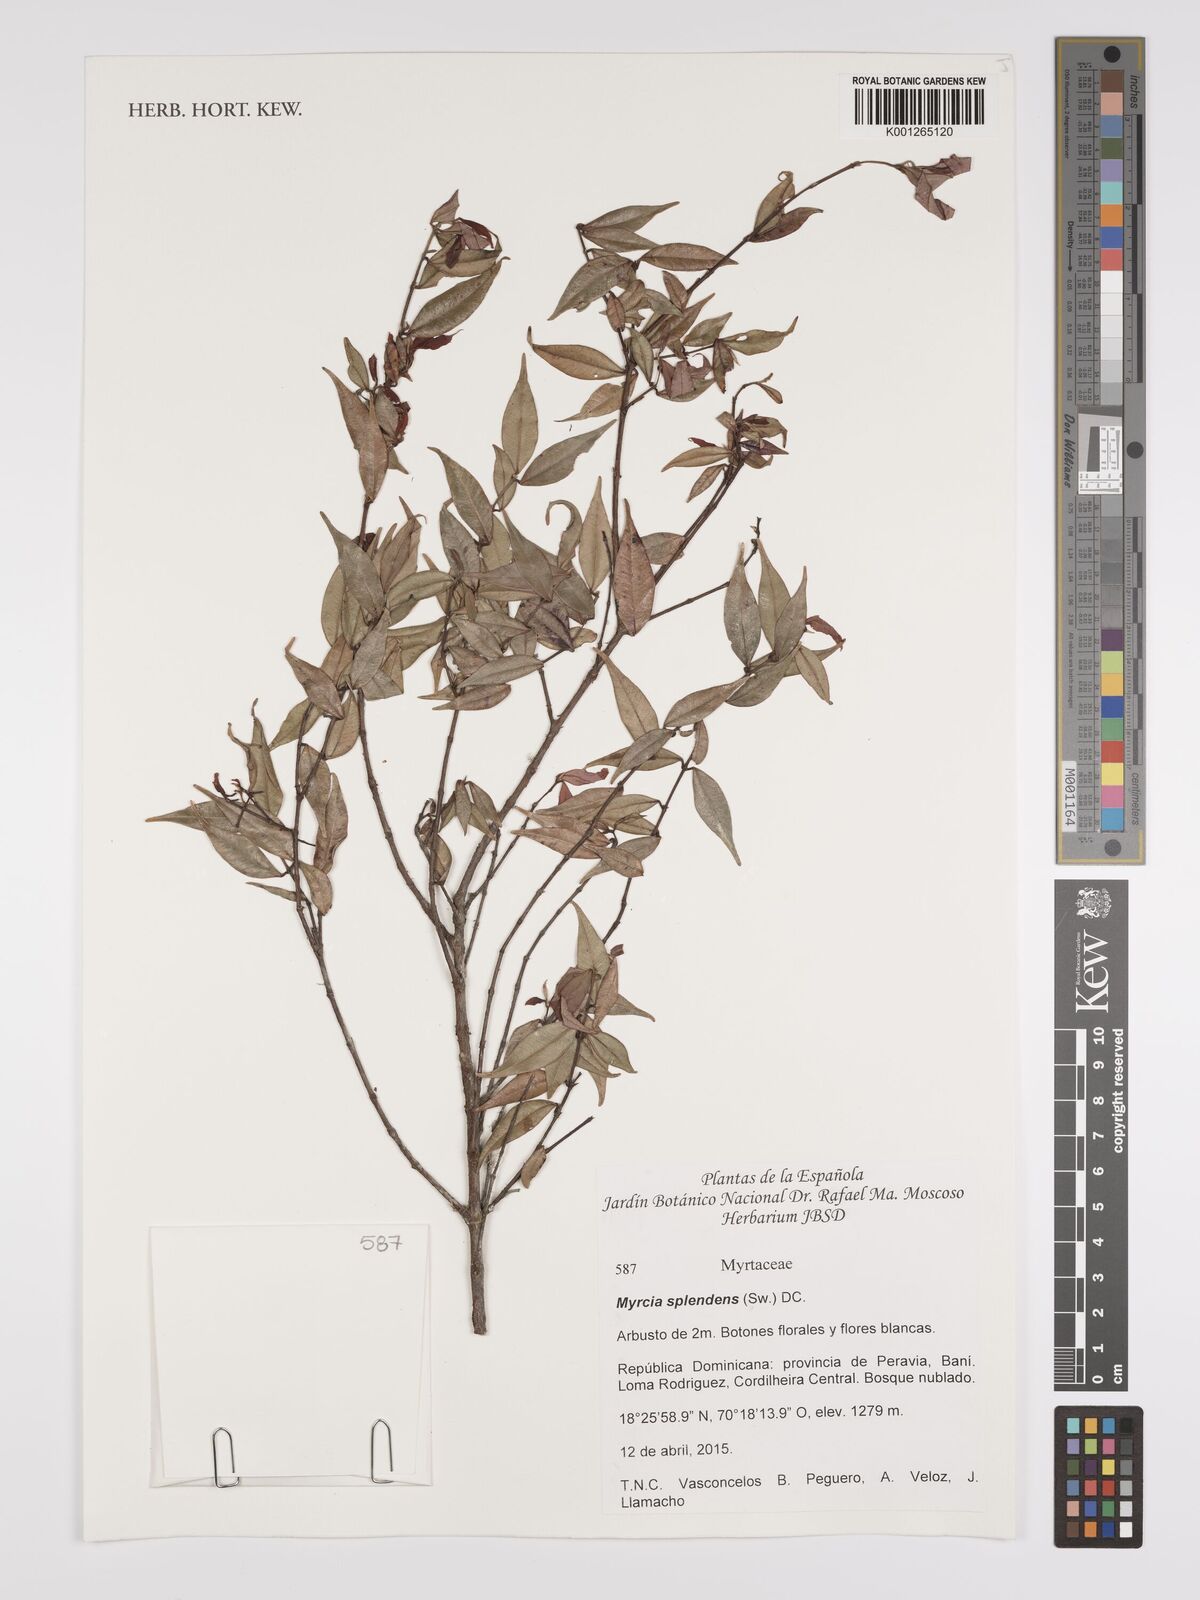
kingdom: Plantae
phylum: Tracheophyta
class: Magnoliopsida
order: Myrtales
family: Myrtaceae
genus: Myrcia
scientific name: Myrcia splendens
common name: Surinam cherry
